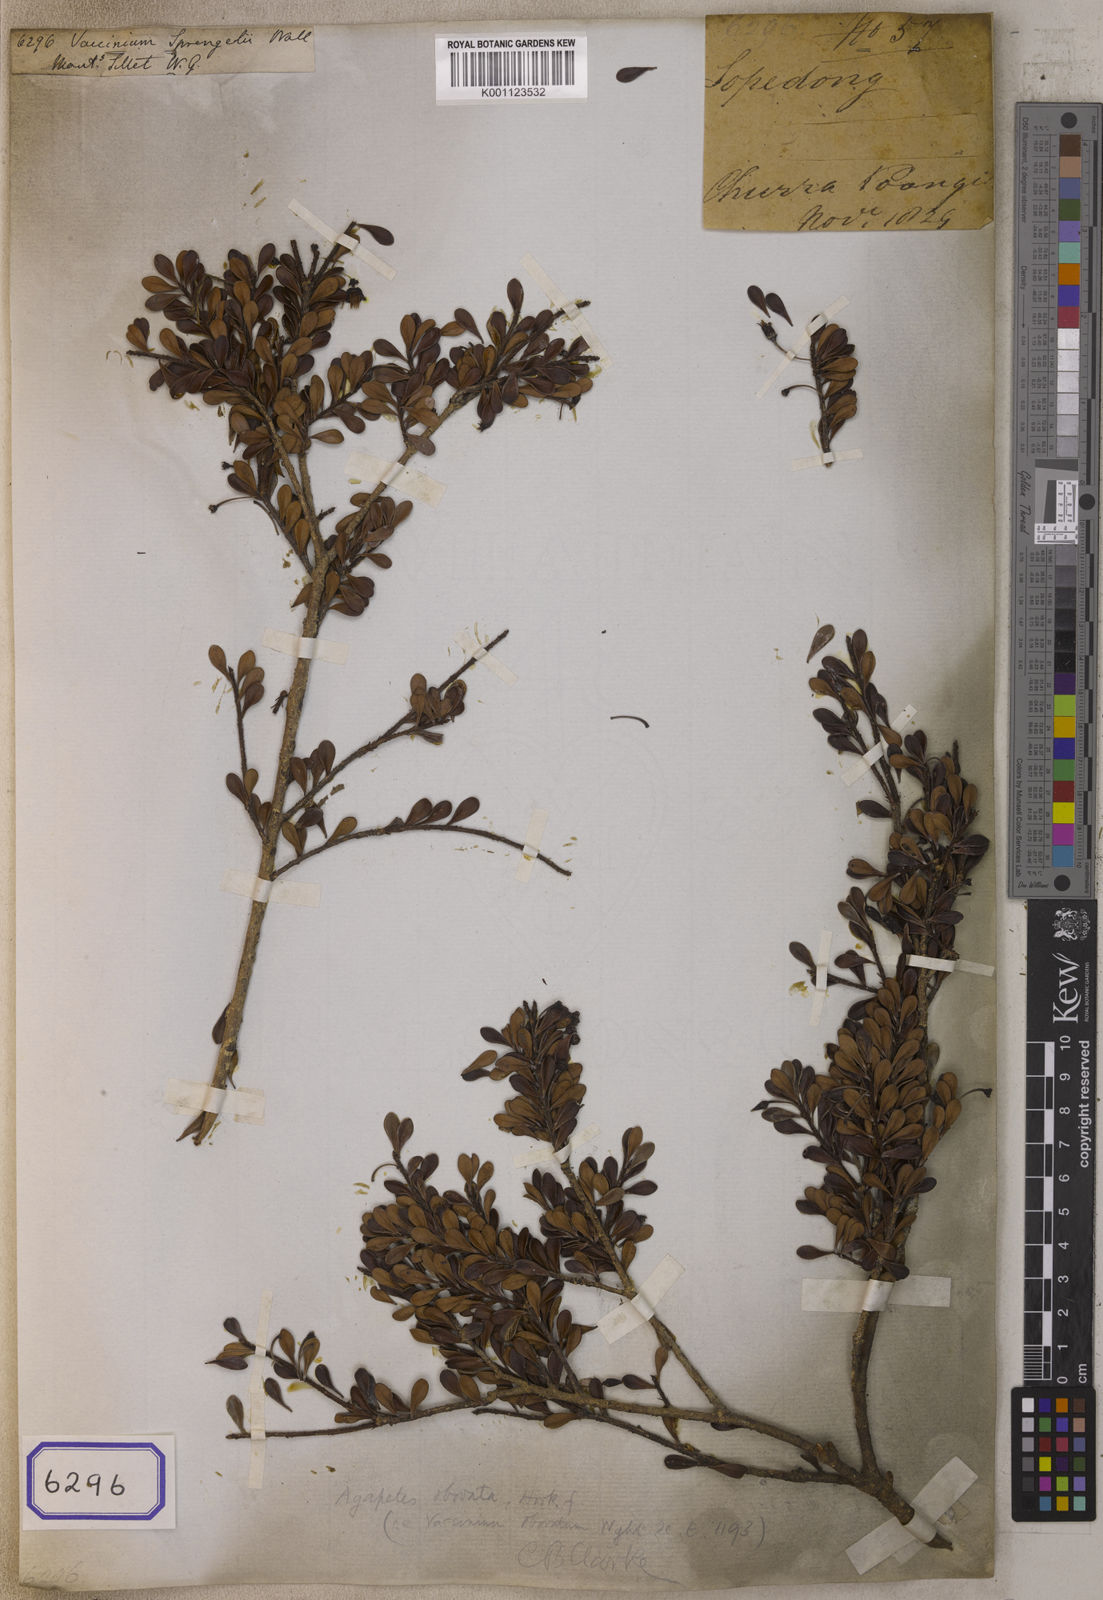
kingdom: Plantae
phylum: Tracheophyta
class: Magnoliopsida
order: Ericales
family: Ericaceae
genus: Agapetes
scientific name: Agapetes obovata
